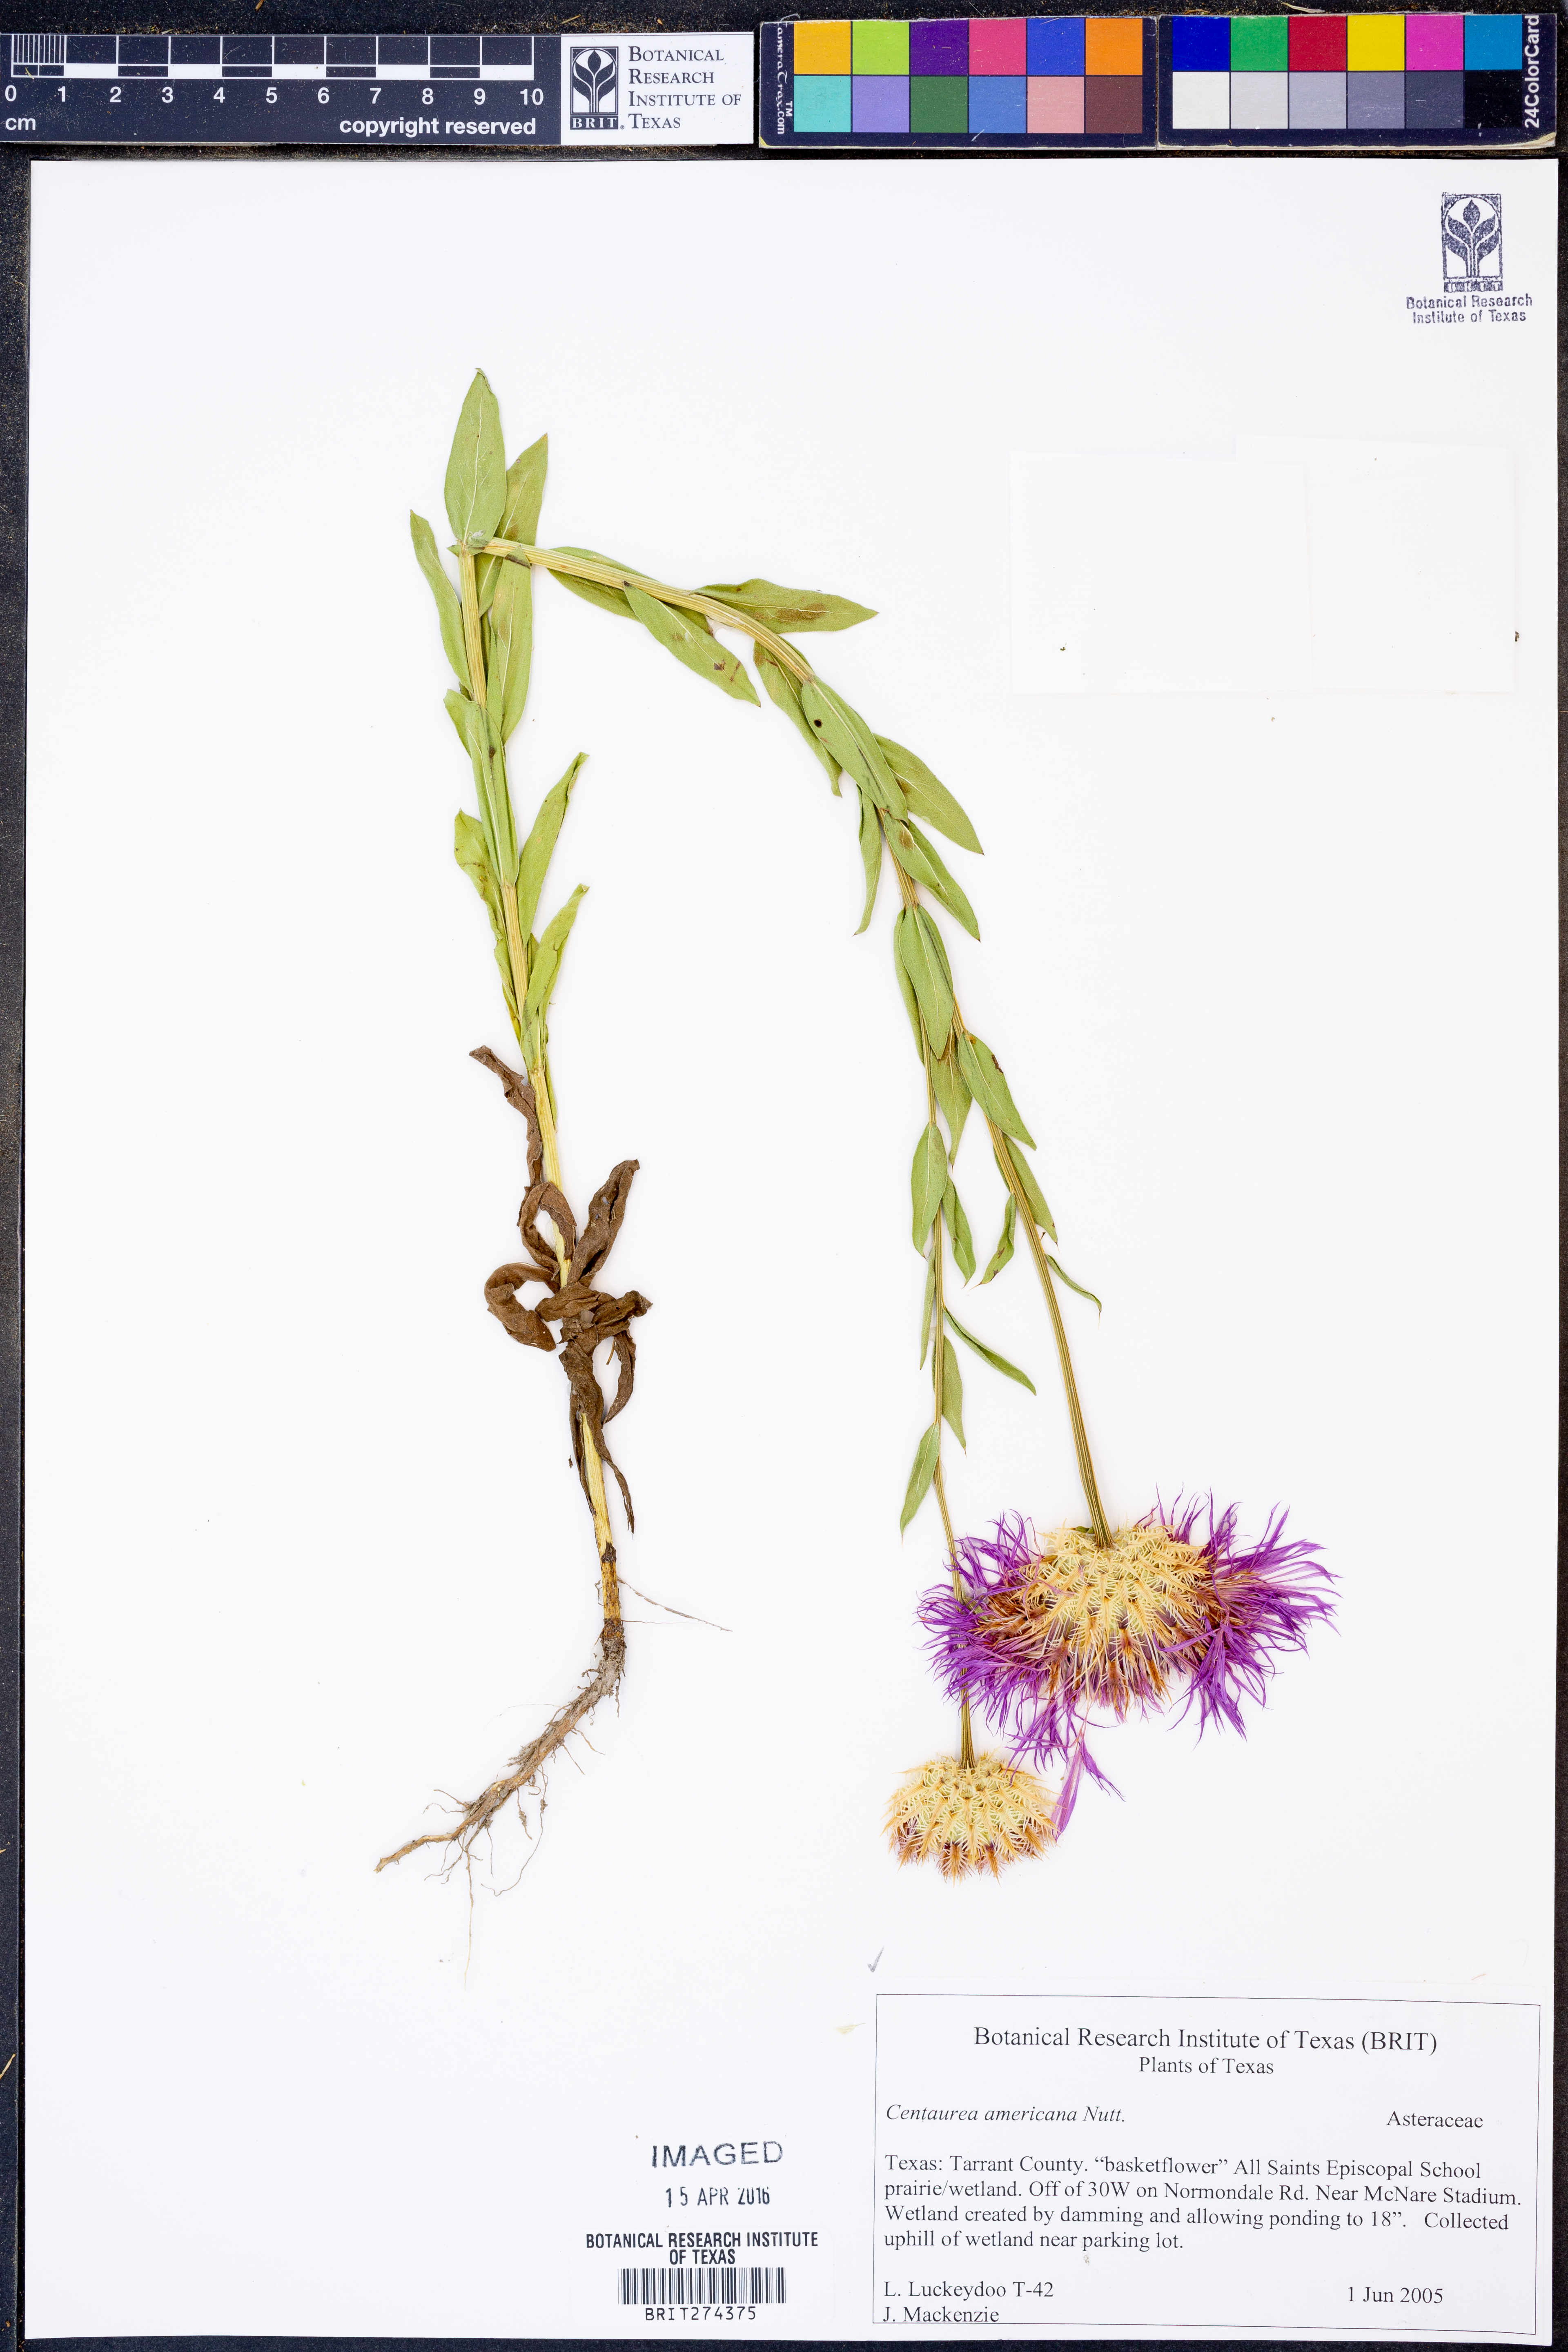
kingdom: Plantae
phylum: Tracheophyta
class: Magnoliopsida
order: Asterales
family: Asteraceae
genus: Plectocephalus
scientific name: Plectocephalus americanus
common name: American basket-flower
